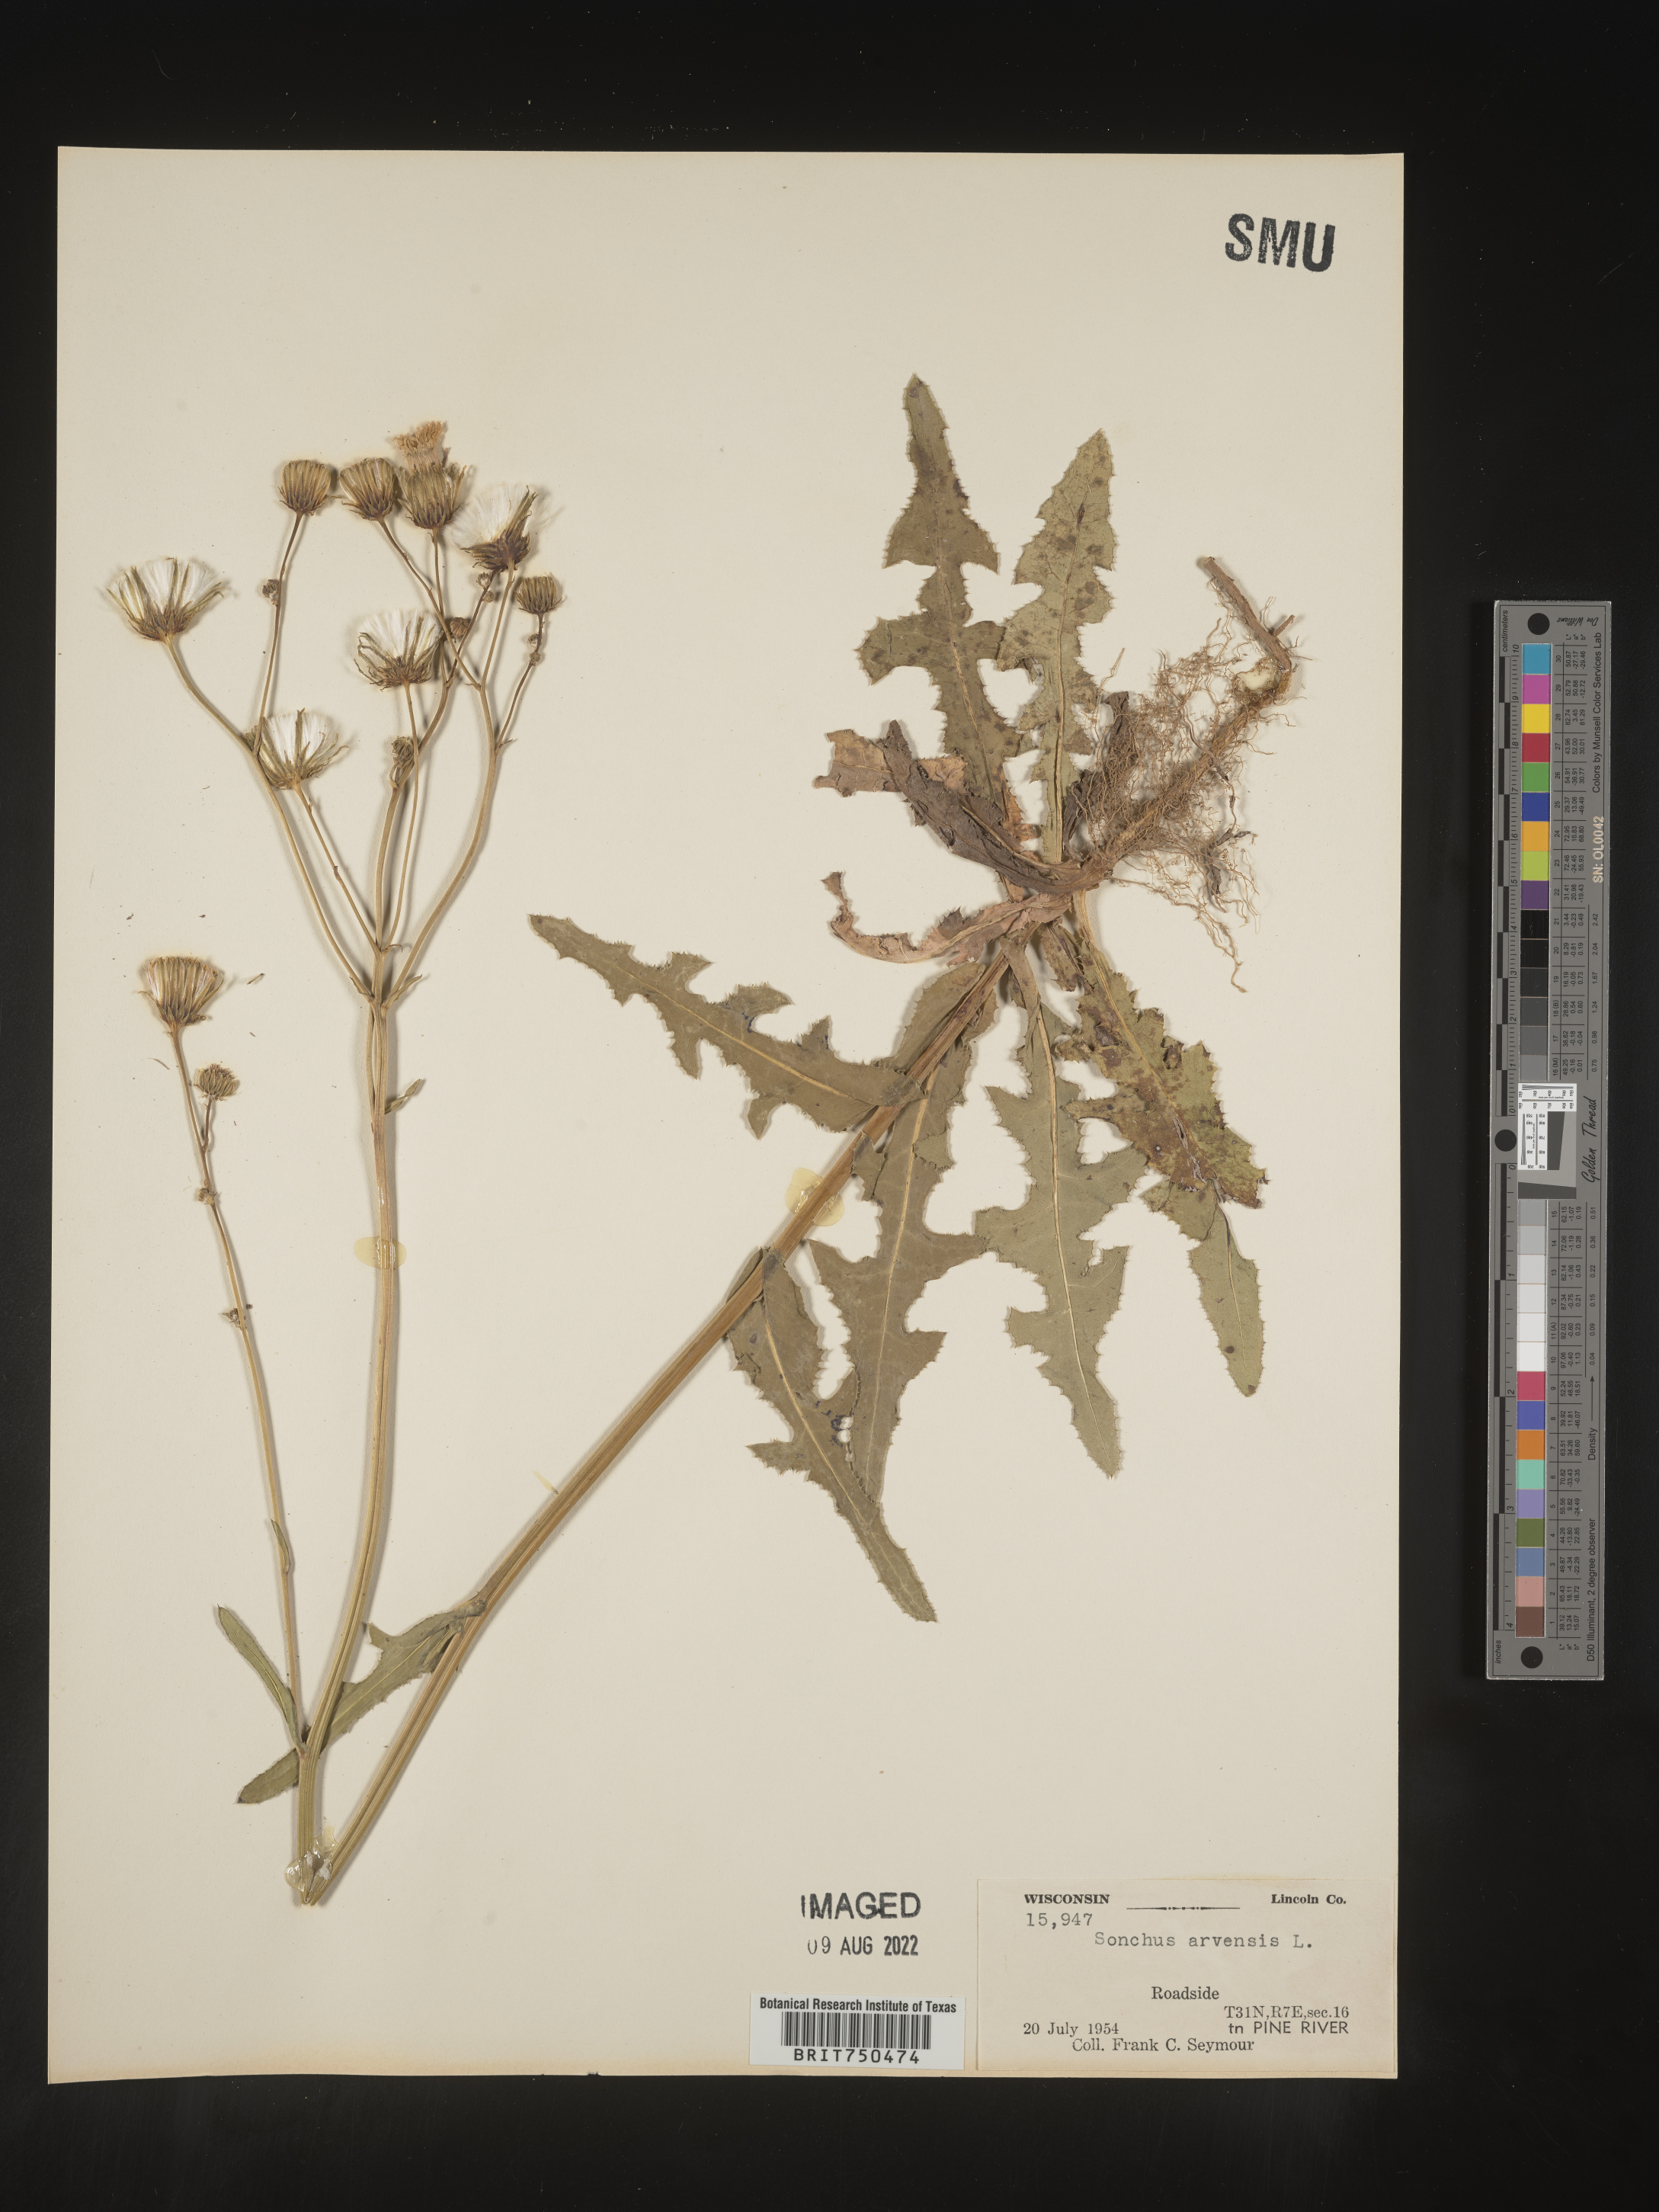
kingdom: Plantae
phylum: Tracheophyta
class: Magnoliopsida
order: Asterales
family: Asteraceae
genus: Sonchus
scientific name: Sonchus arvensis
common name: Perennial sow-thistle
